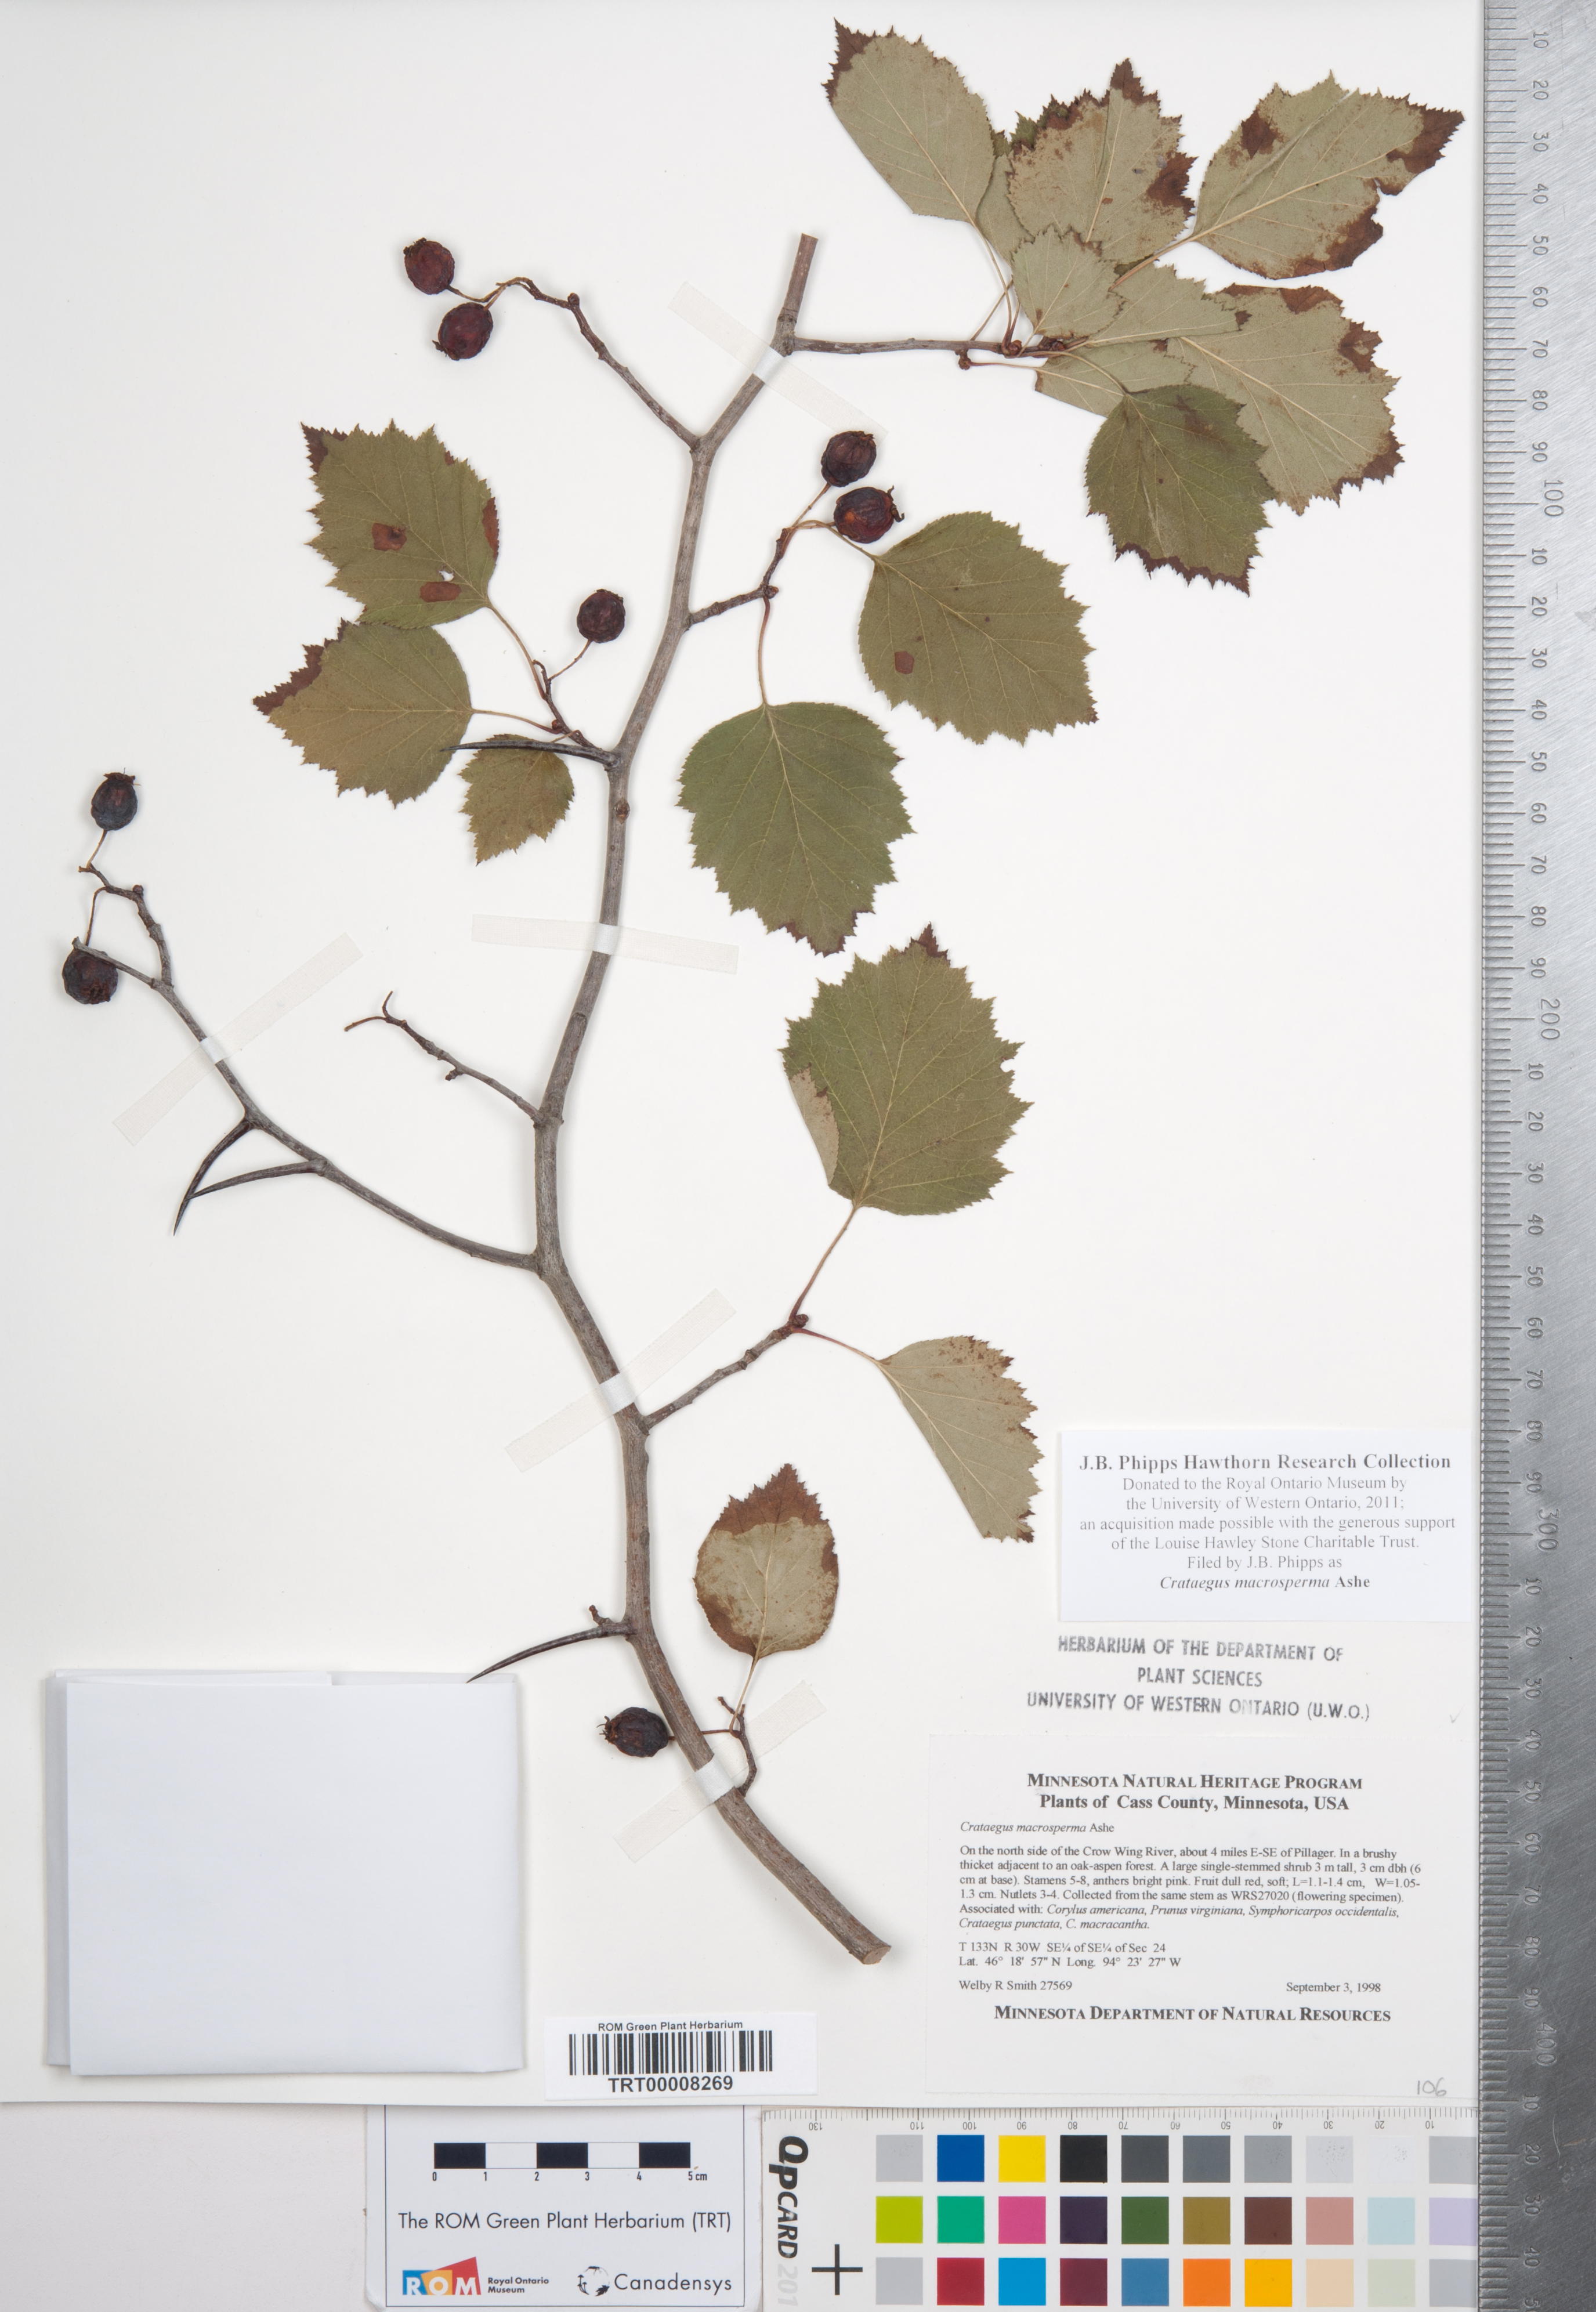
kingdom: Plantae
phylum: Tracheophyta
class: Magnoliopsida
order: Rosales
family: Rosaceae
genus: Crataegus
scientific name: Crataegus macrosperma
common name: Variable hawthorn
